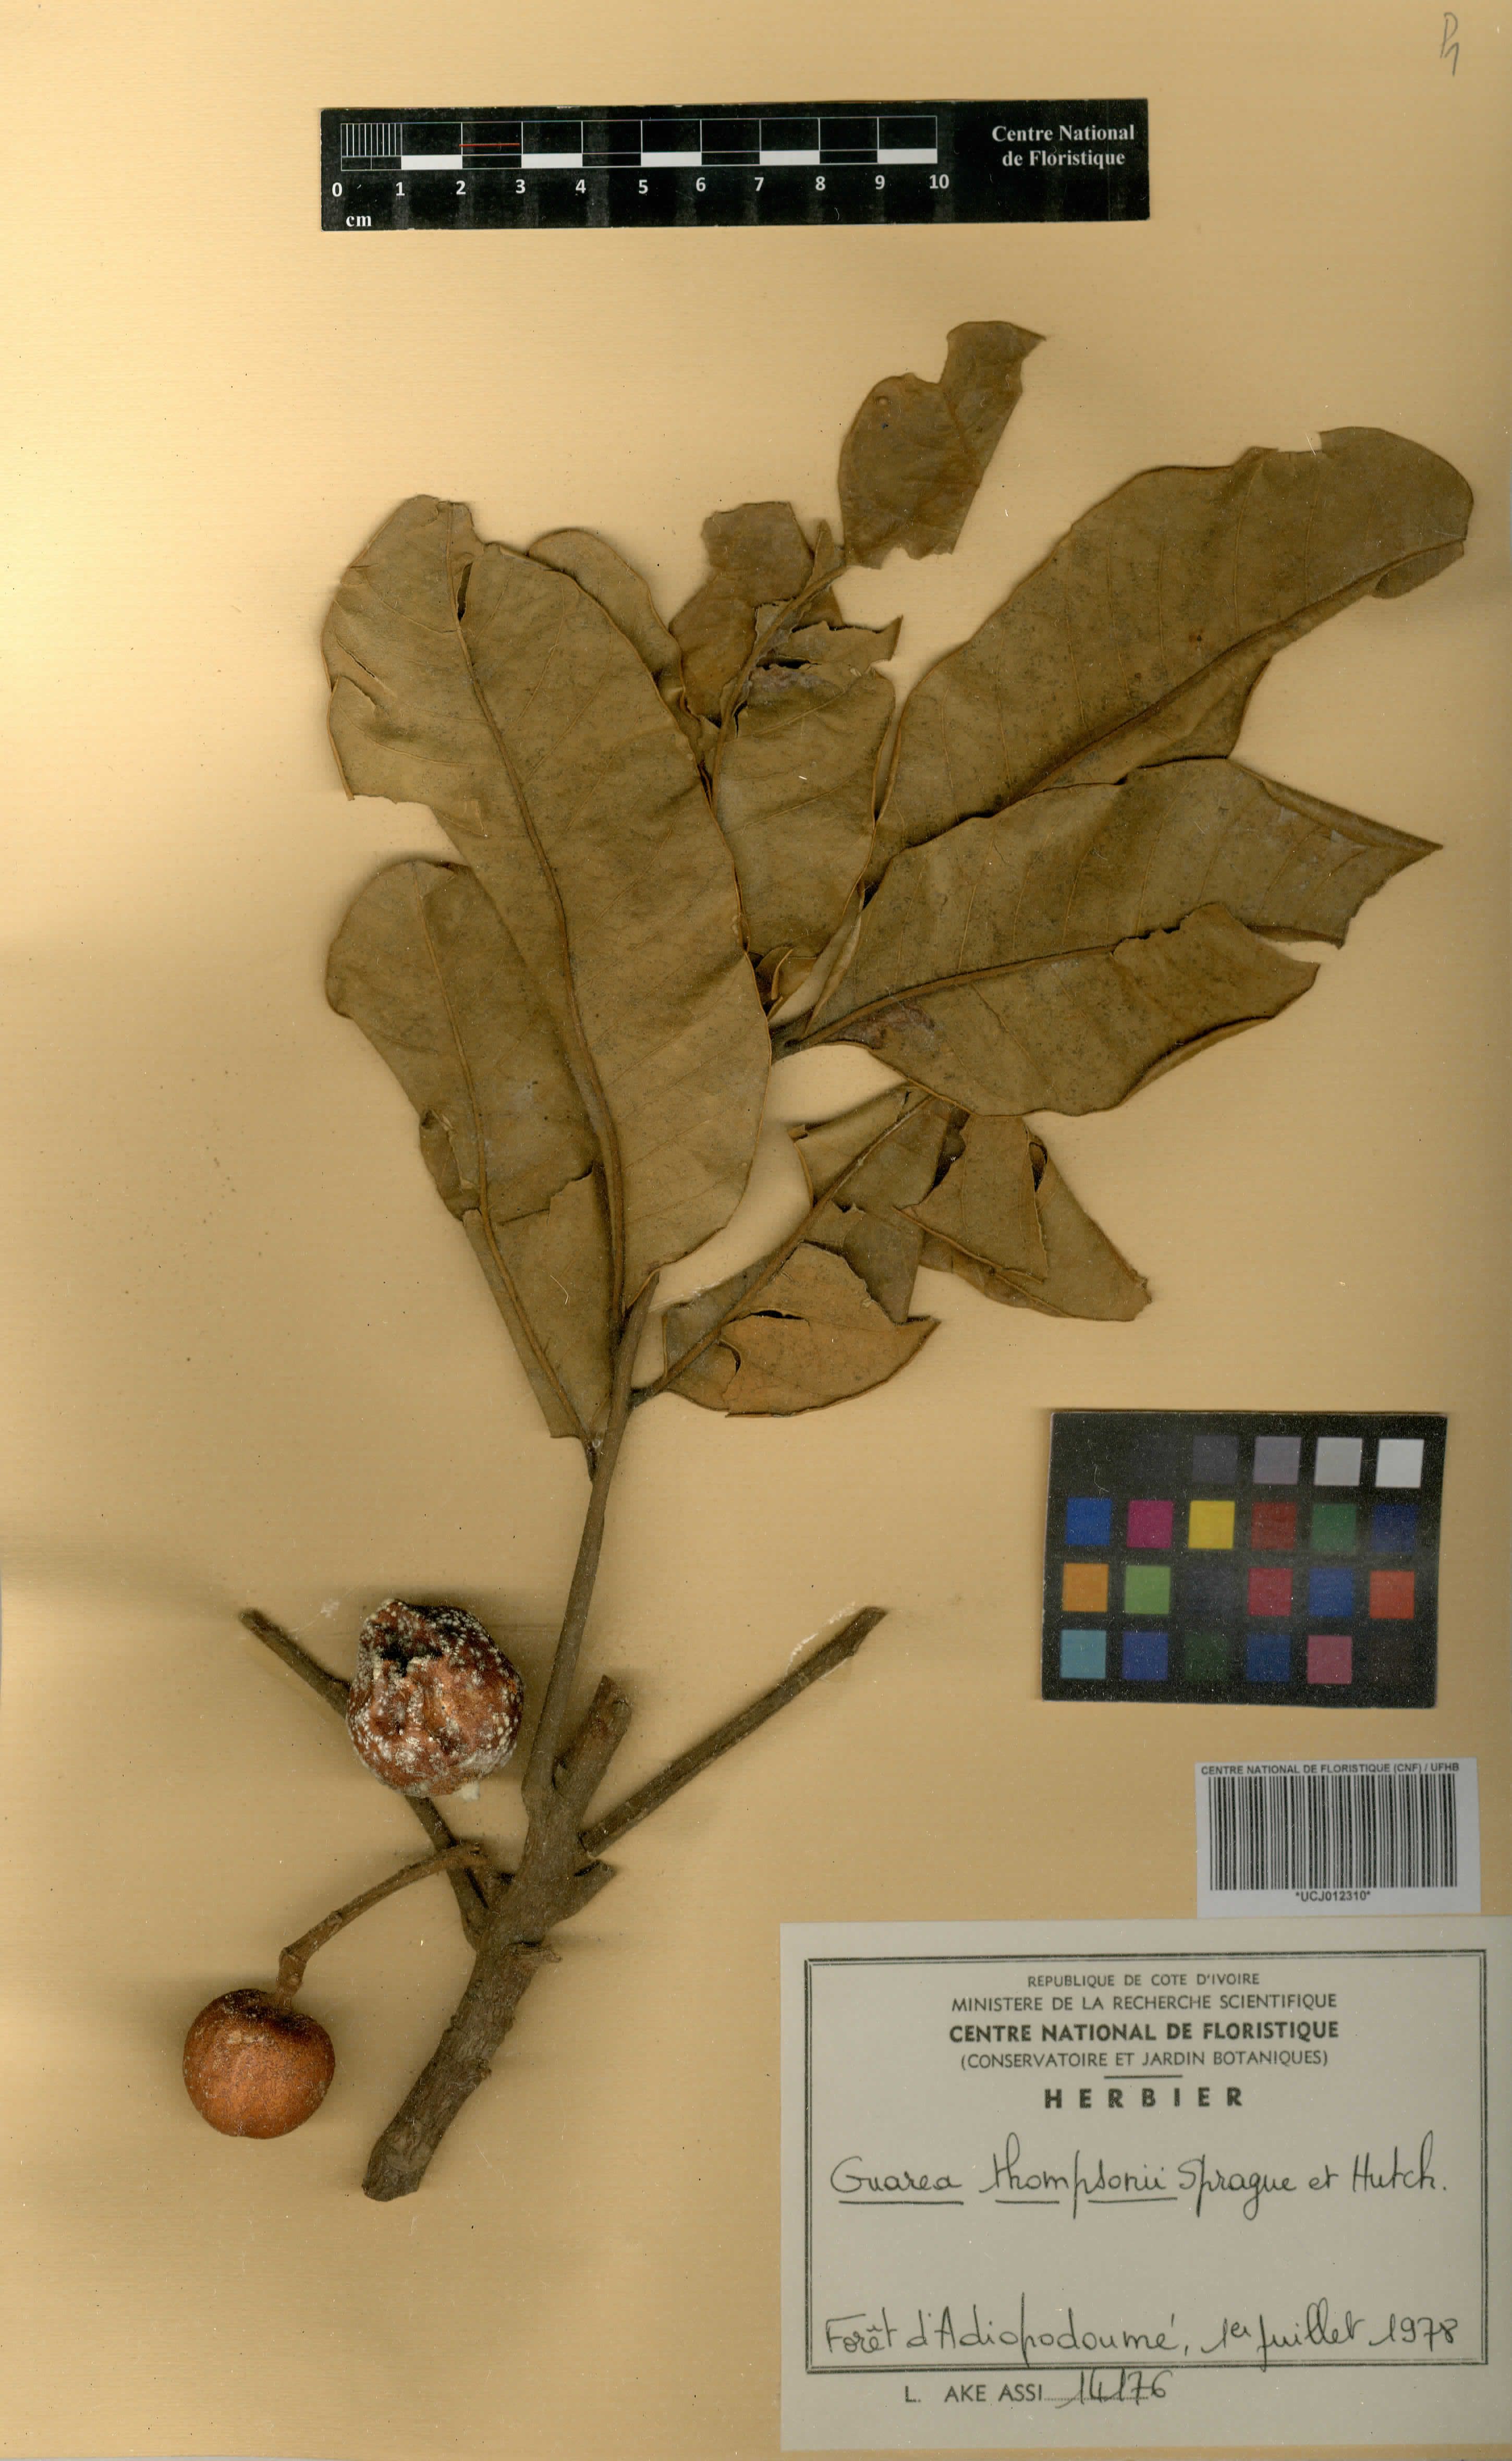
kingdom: Plantae
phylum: Tracheophyta
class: Magnoliopsida
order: Sapindales
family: Meliaceae
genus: Leplaea
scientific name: Leplaea thompsonii
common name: Black guarea
